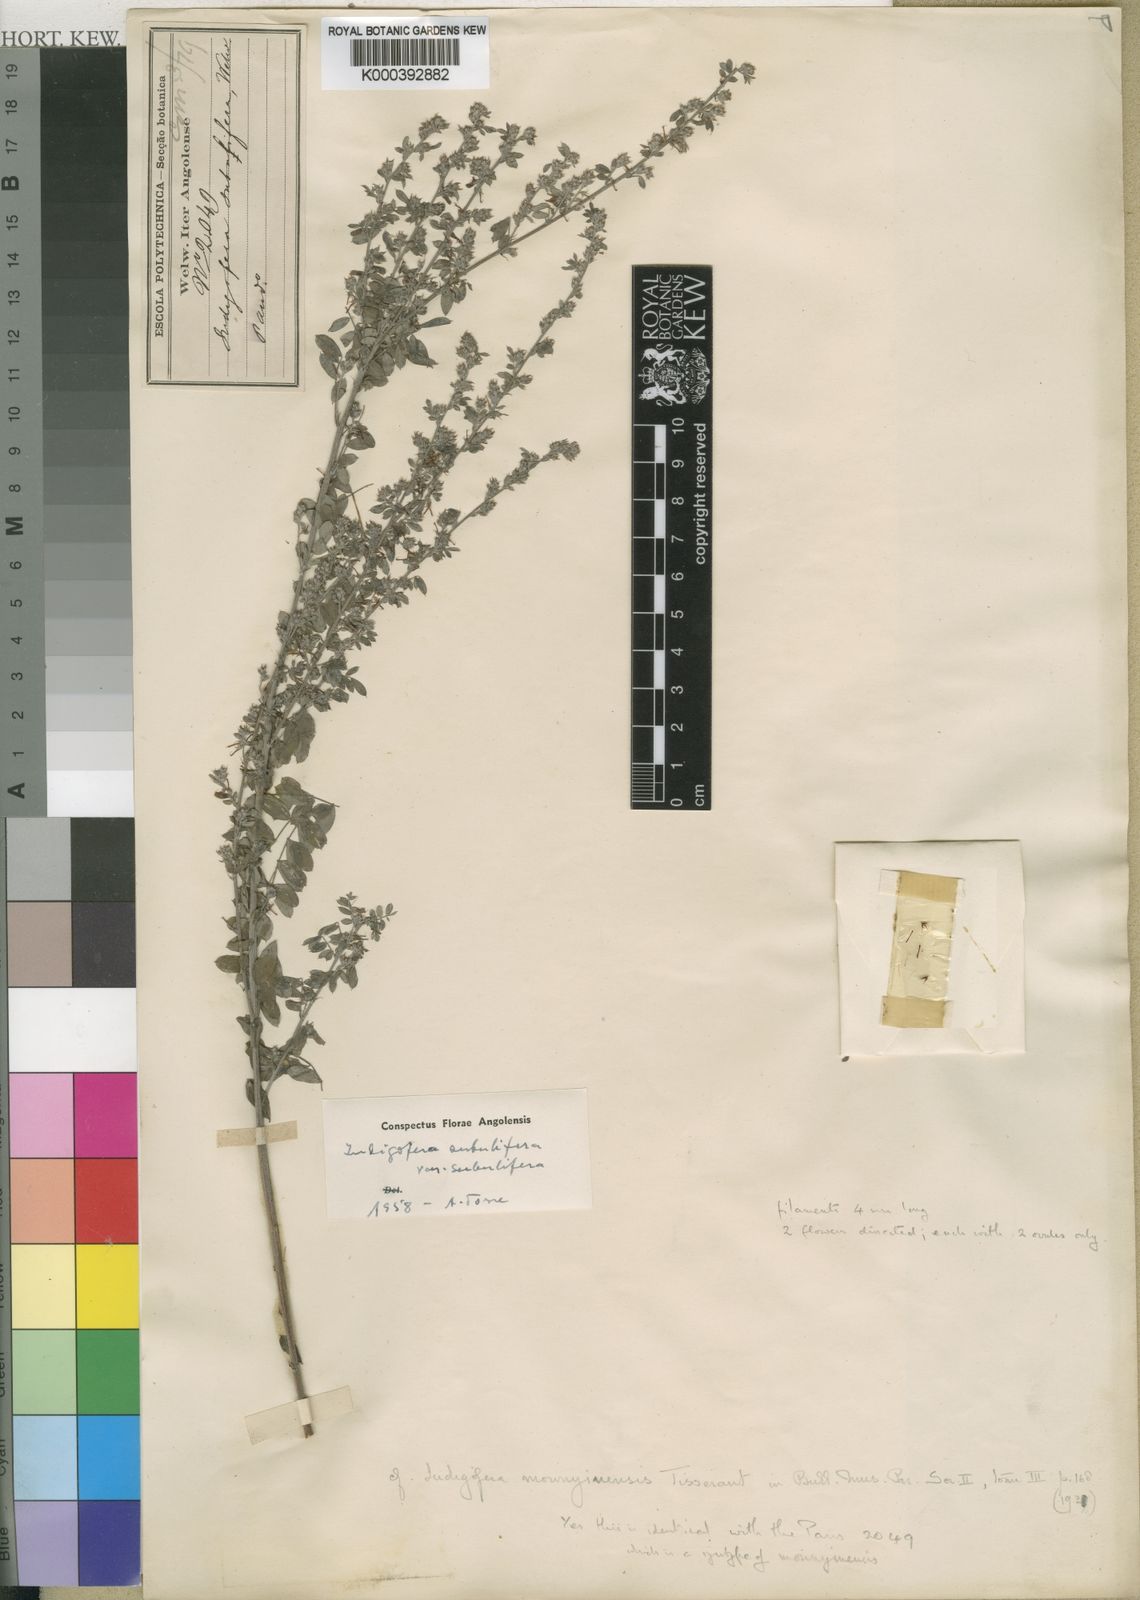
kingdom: Plantae
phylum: Tracheophyta
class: Magnoliopsida
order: Fabales
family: Fabaceae
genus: Indigofera
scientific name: Indigofera subulifera
